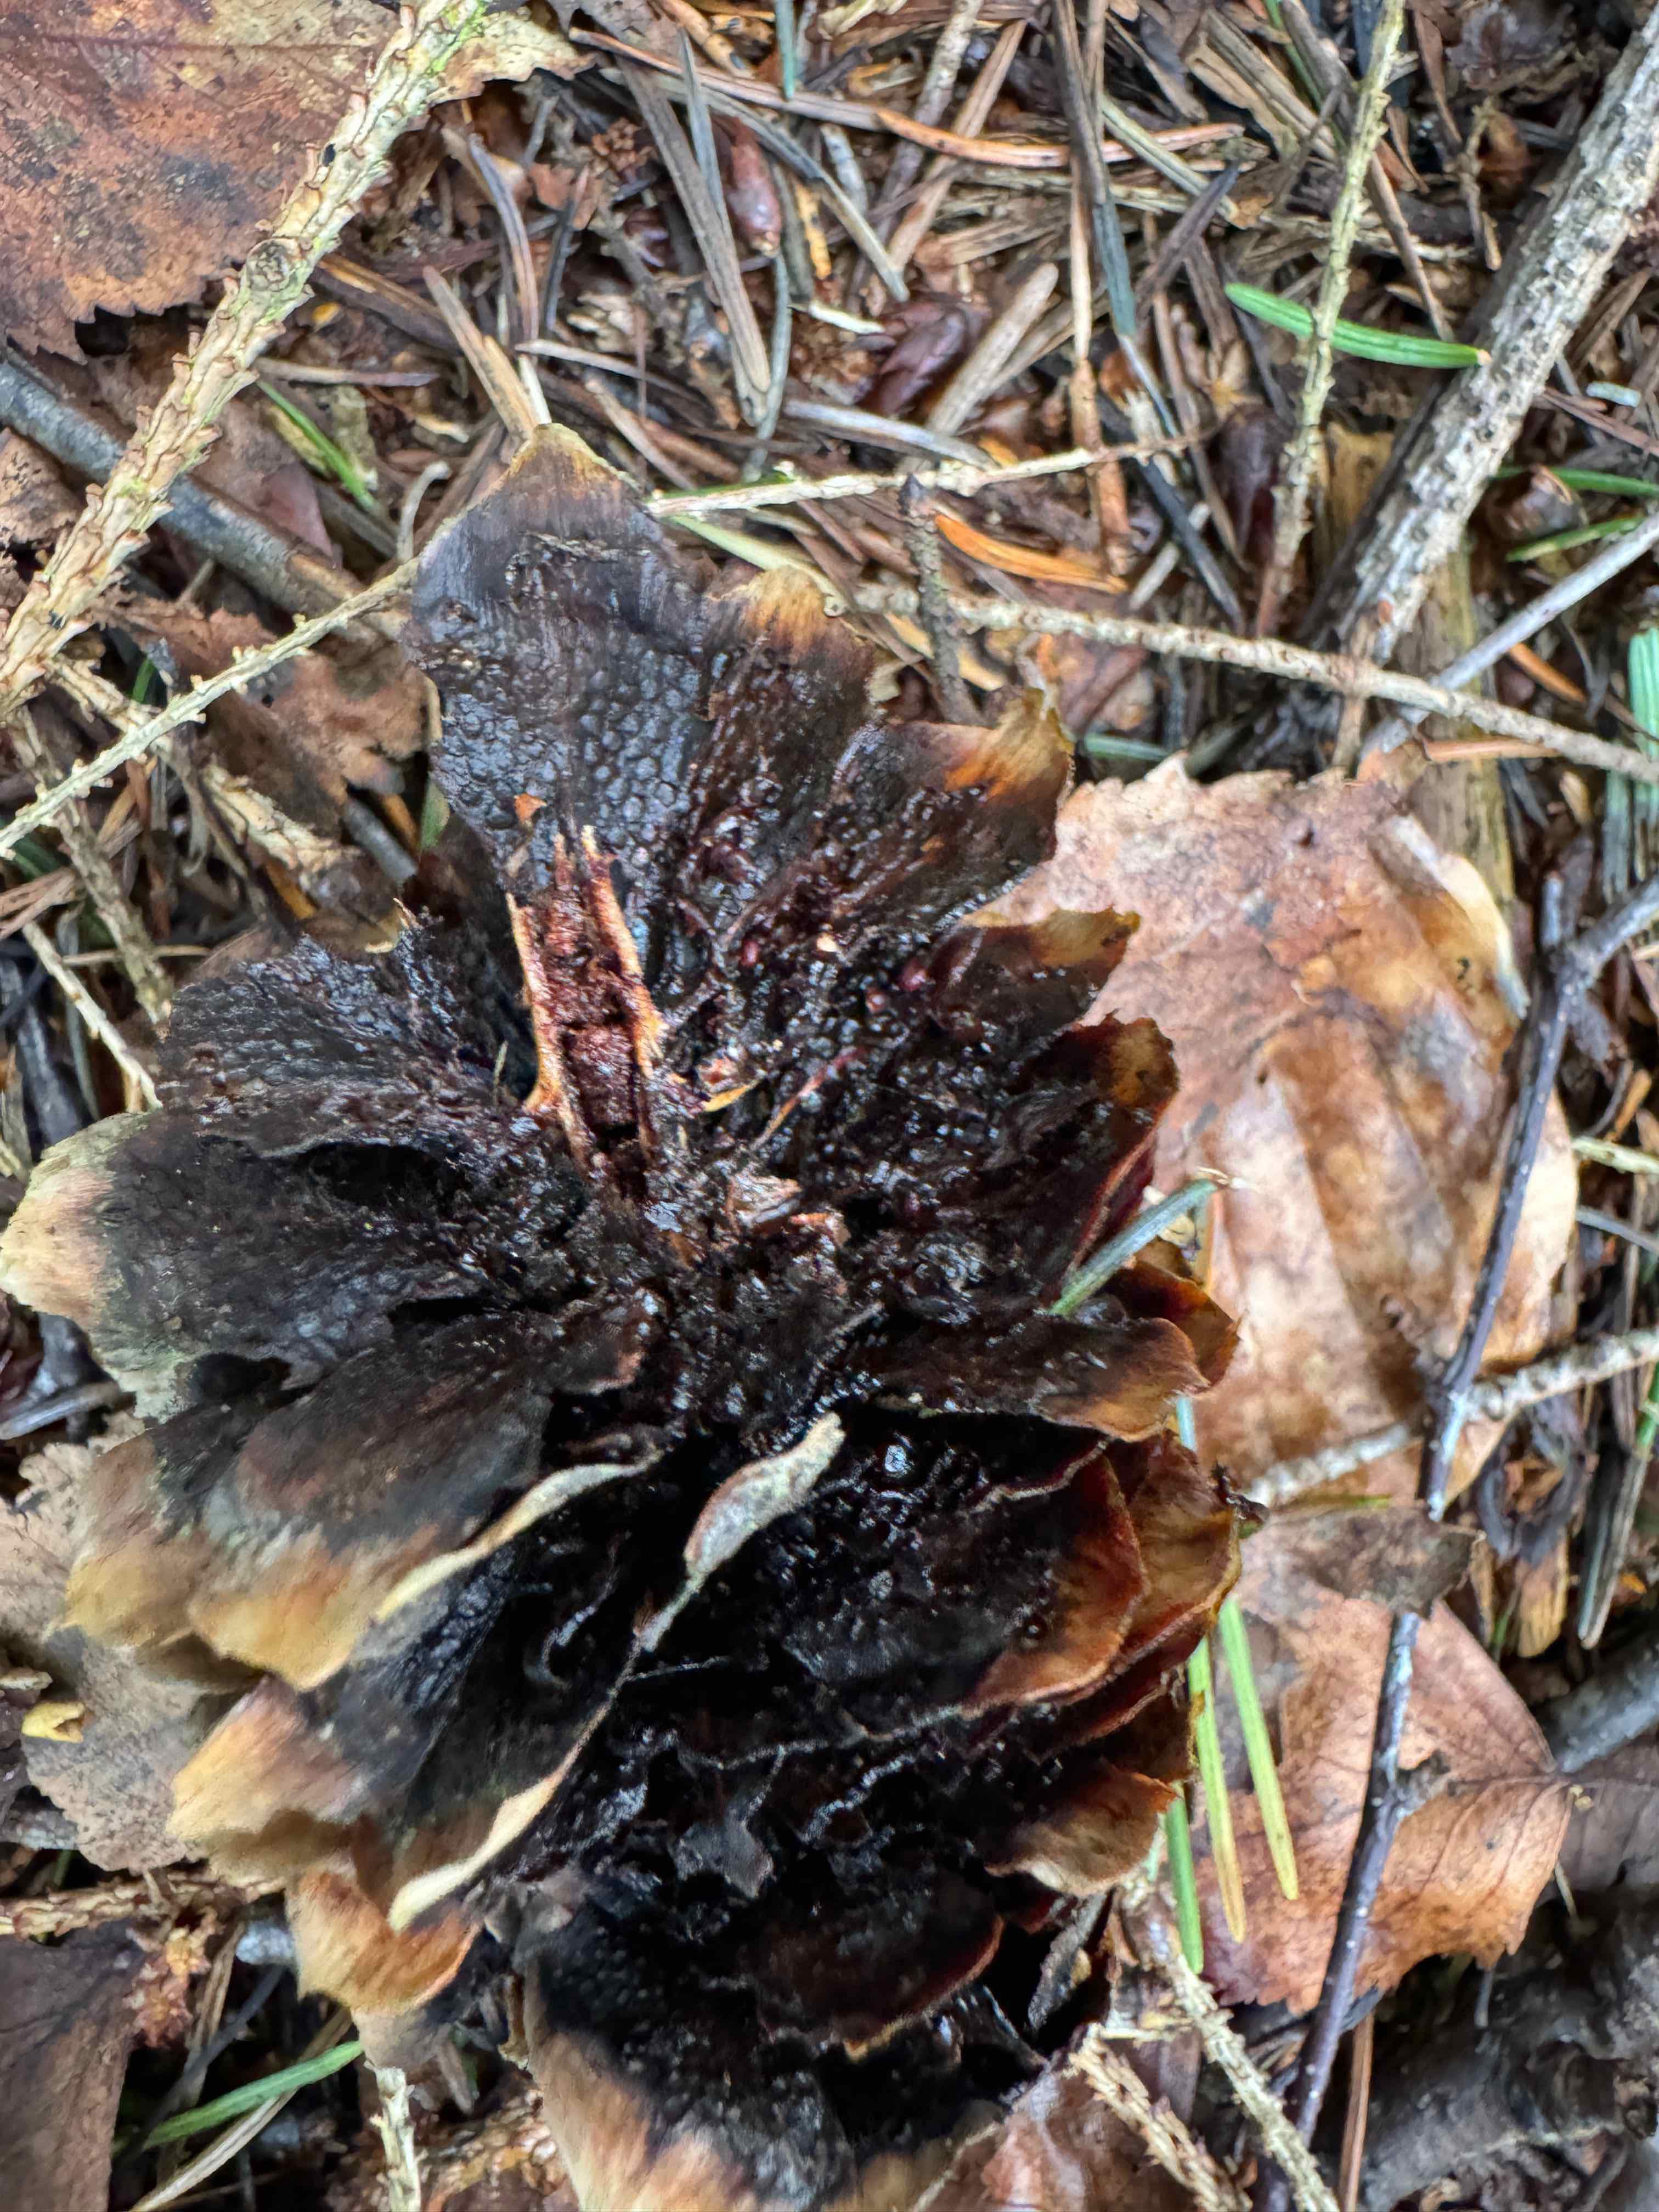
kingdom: Fungi
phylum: Basidiomycota
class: Pucciniomycetes
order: Pucciniales
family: Pucciniastraceae
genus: Thekopsora
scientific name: Thekopsora areolata
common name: grankogle-nålerust
